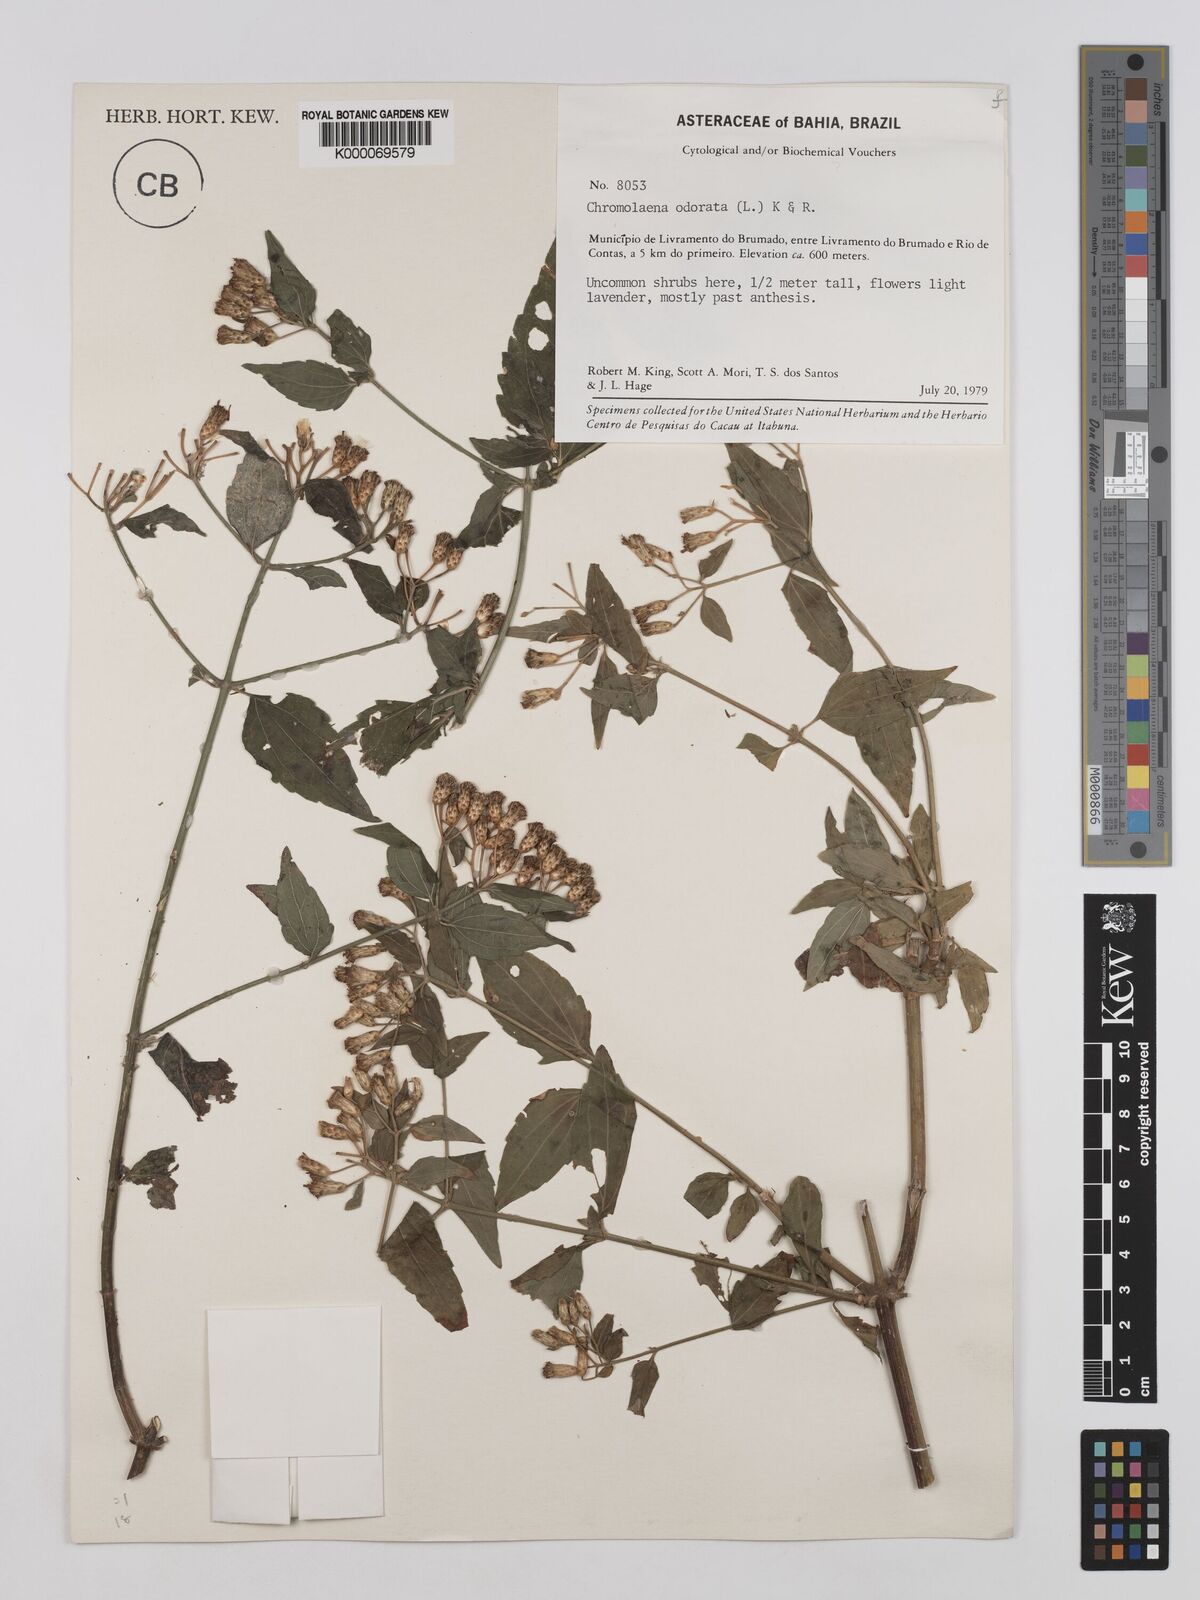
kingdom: Plantae
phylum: Tracheophyta
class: Magnoliopsida
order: Asterales
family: Asteraceae
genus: Chromolaena
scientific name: Chromolaena odorata
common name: Siamweed
